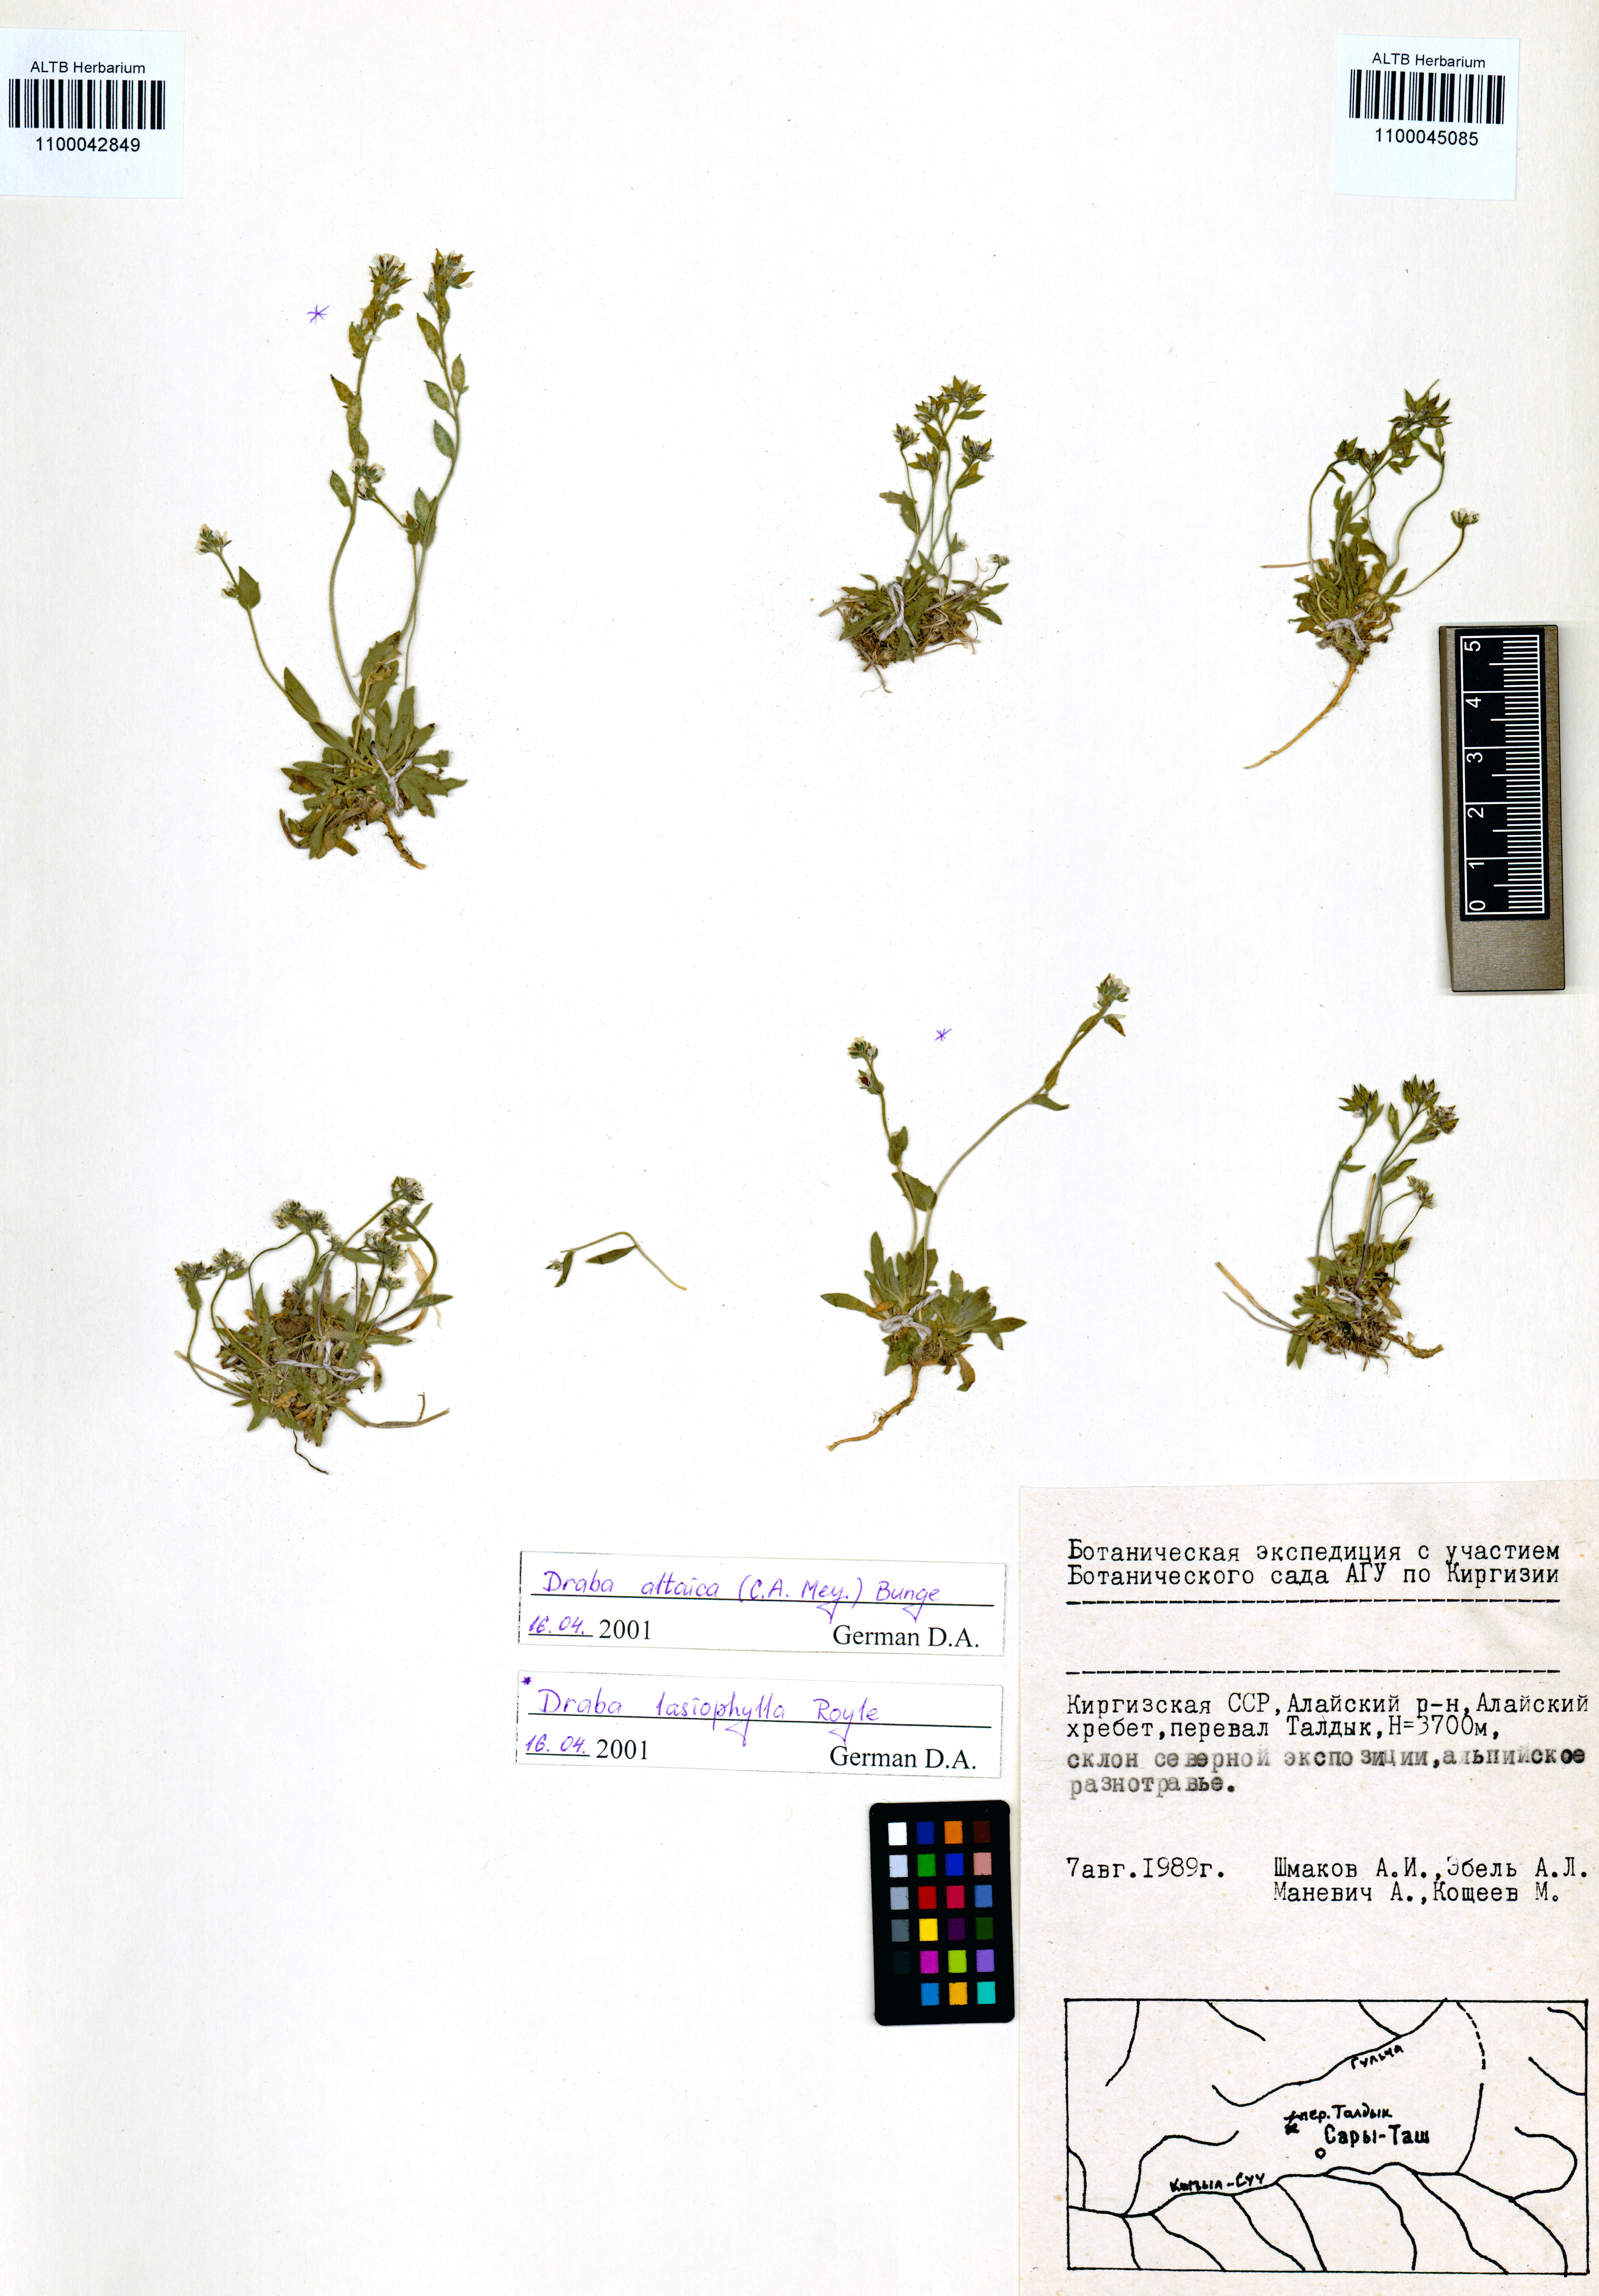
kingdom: Plantae
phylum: Tracheophyta
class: Magnoliopsida
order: Brassicales
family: Brassicaceae
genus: Draba
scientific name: Draba lasiophylla
